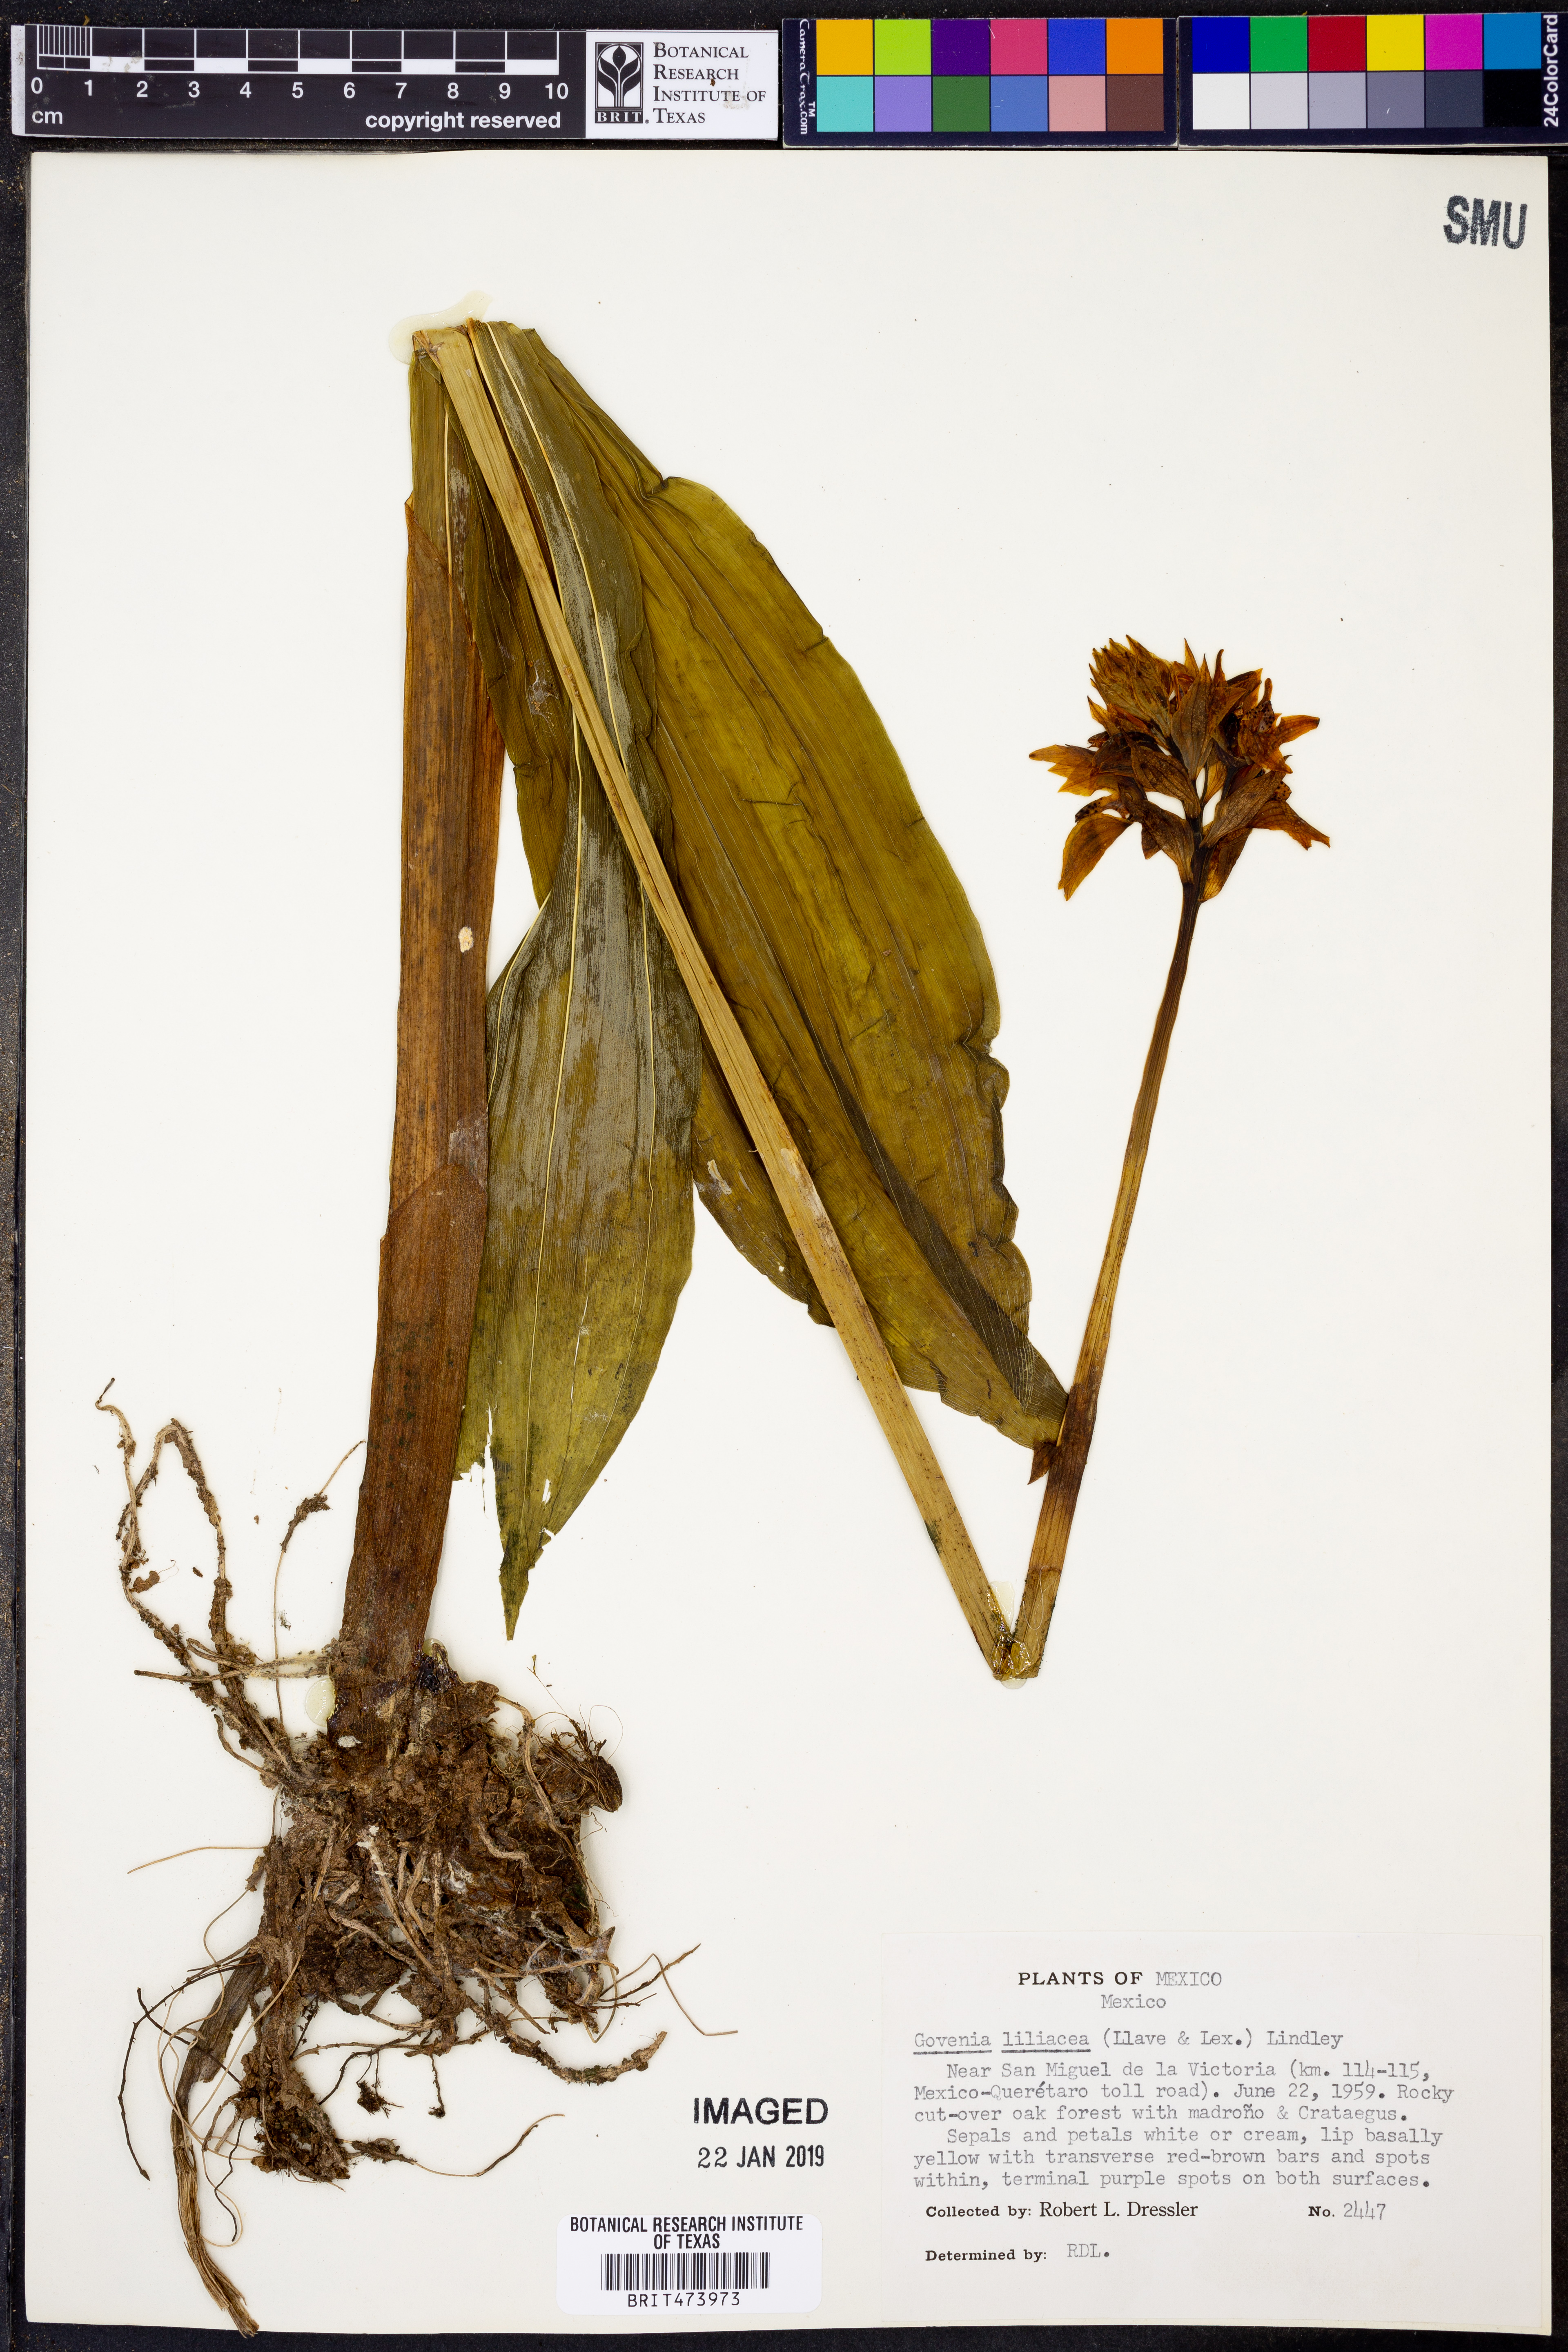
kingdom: Plantae
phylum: Tracheophyta
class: Liliopsida
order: Asparagales
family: Orchidaceae
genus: Govenia
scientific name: Govenia liliacea
